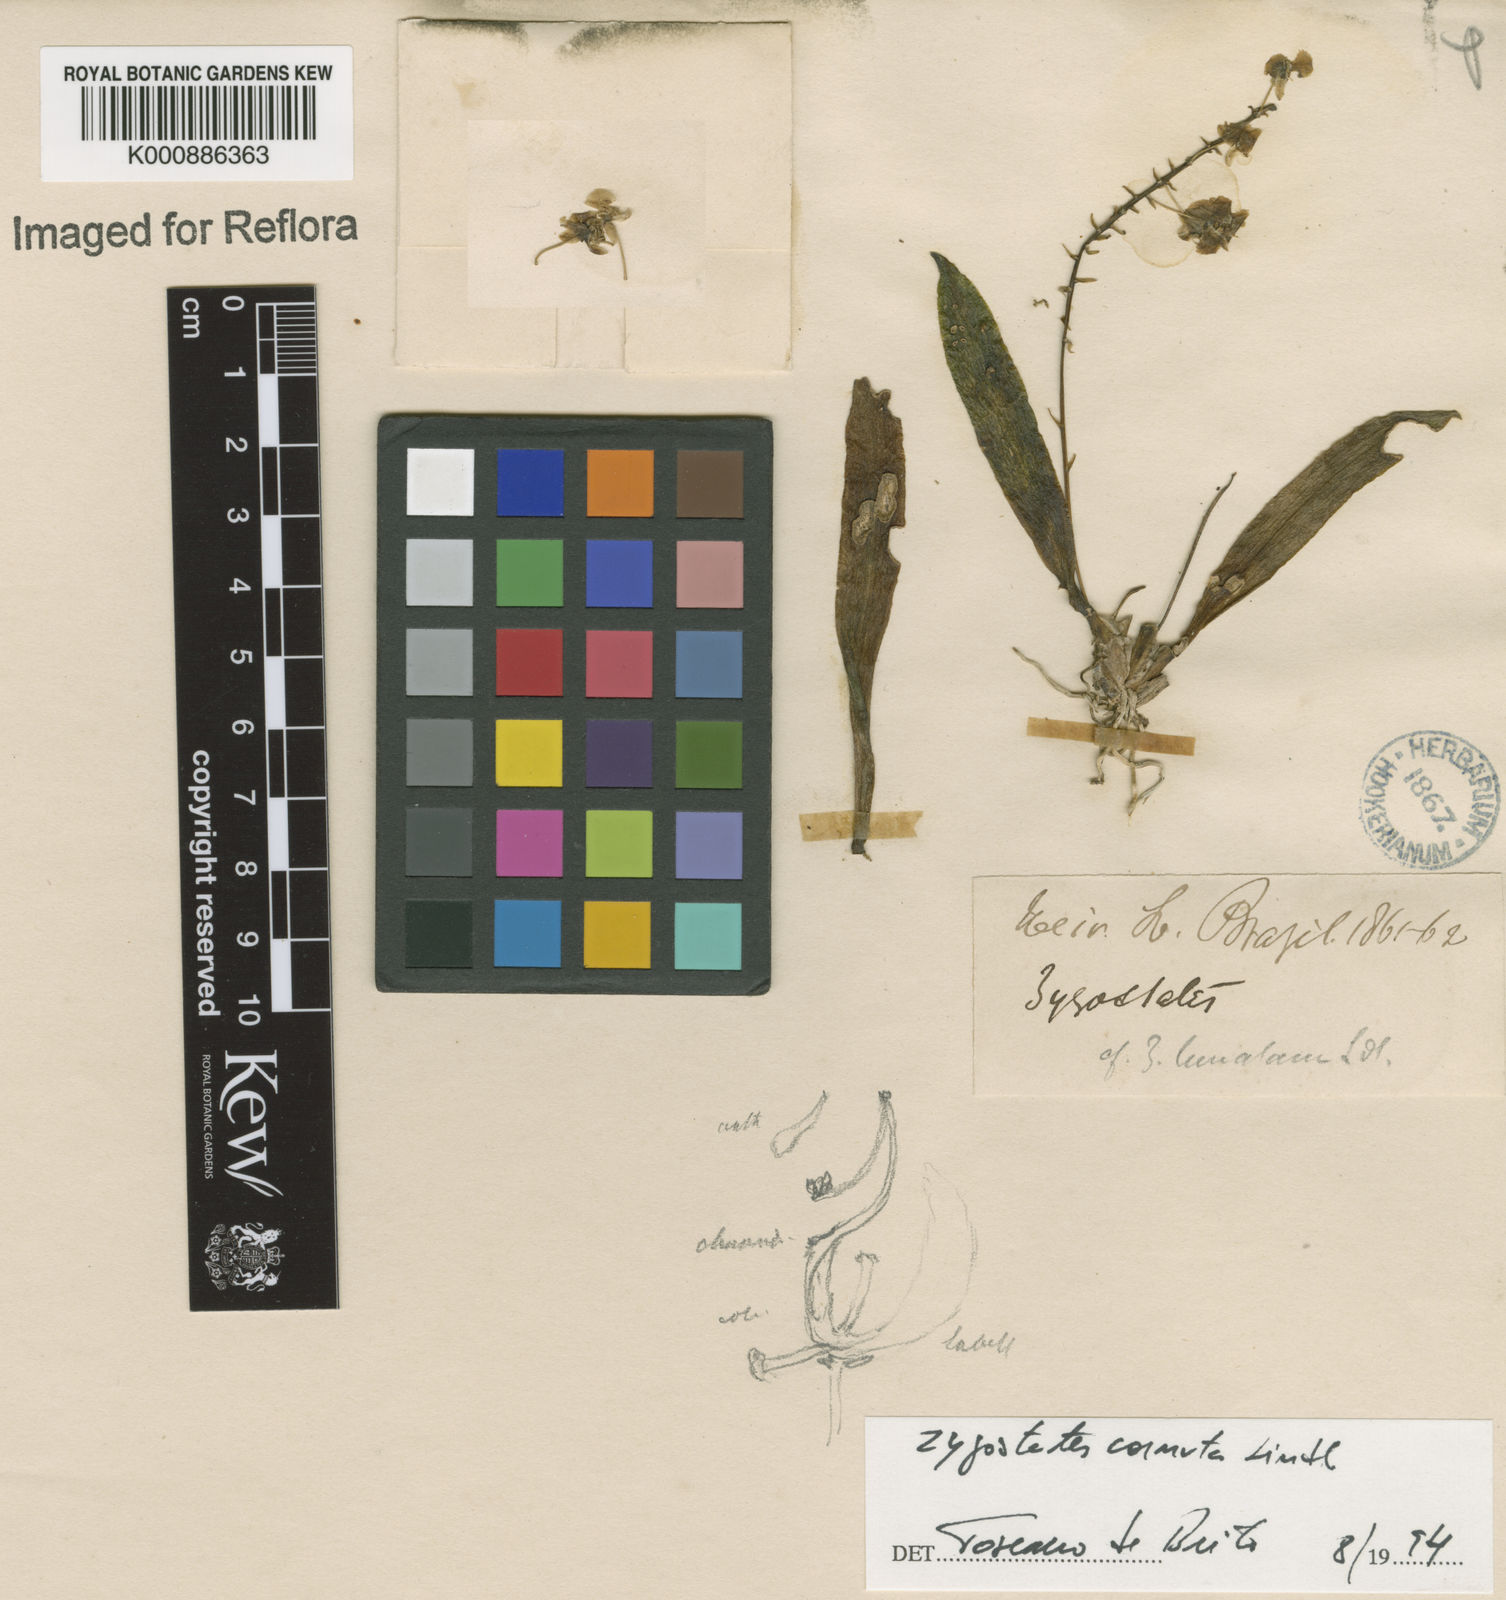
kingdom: Plantae
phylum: Tracheophyta
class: Liliopsida
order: Asparagales
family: Orchidaceae
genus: Zygostates
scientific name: Zygostates cornuta
